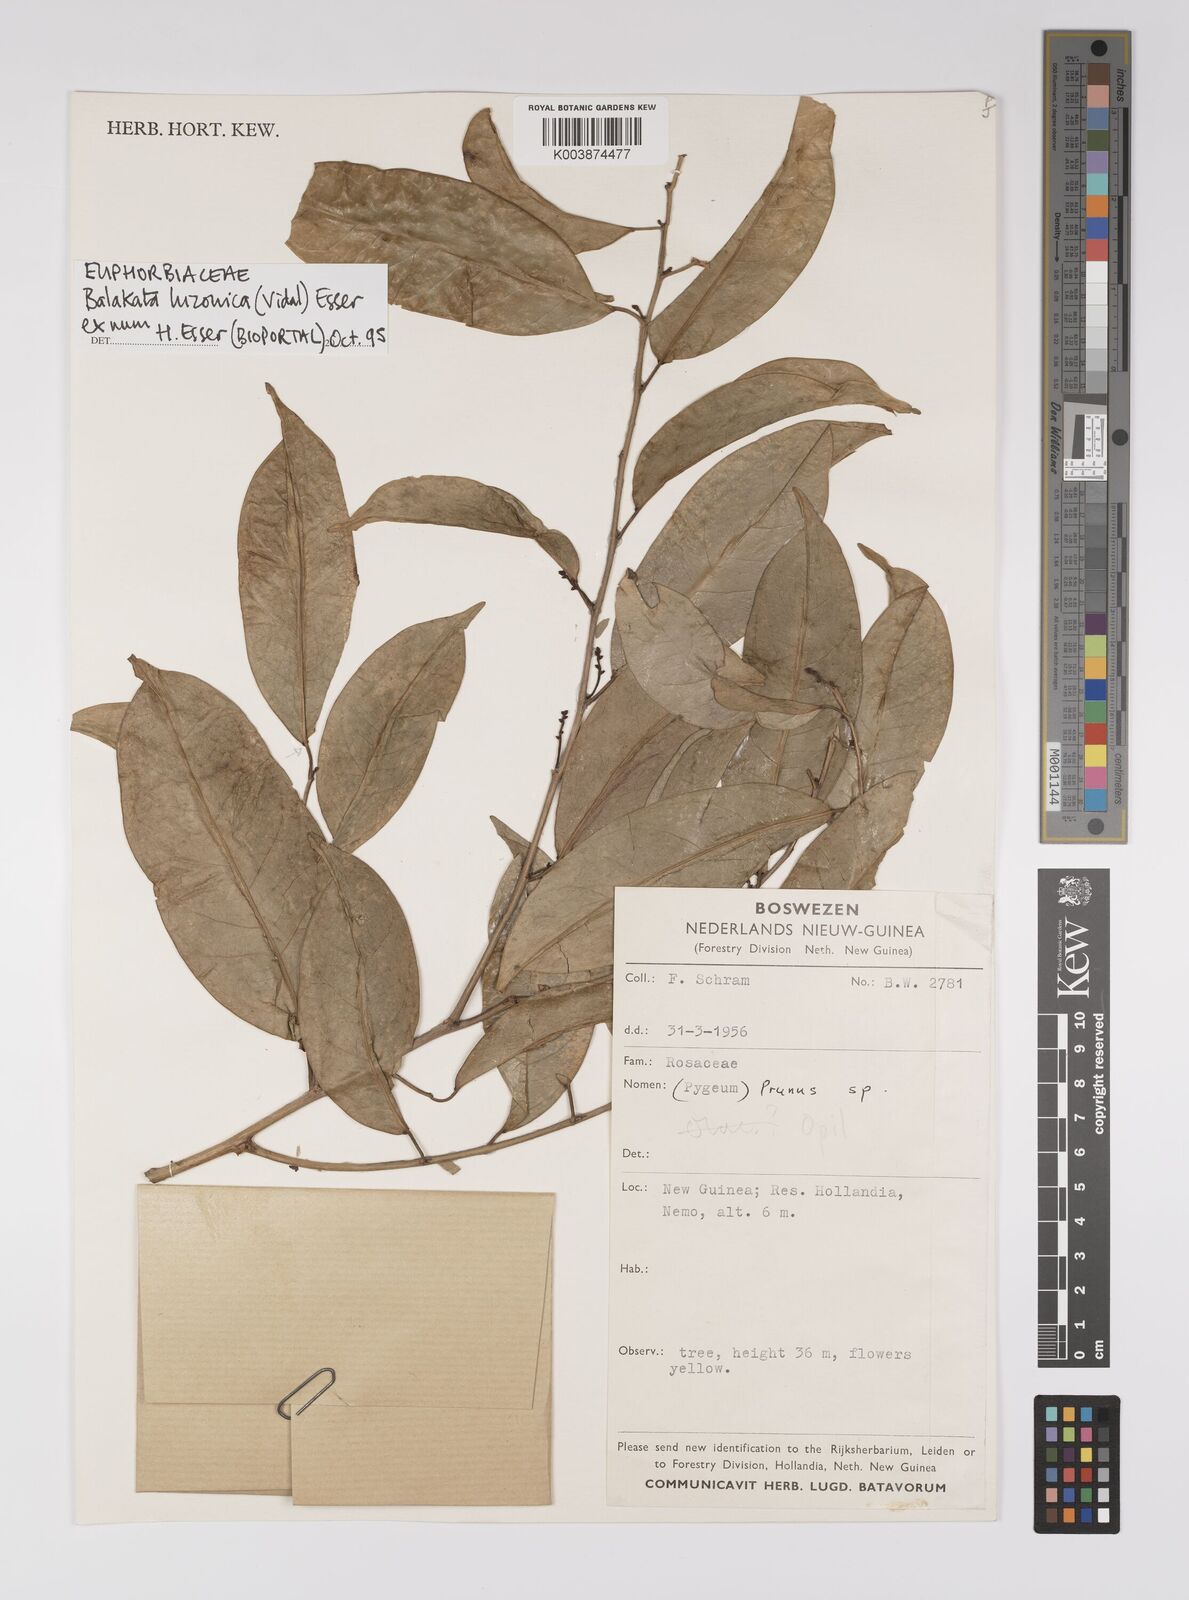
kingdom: Plantae
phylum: Tracheophyta
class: Magnoliopsida
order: Malpighiales
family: Euphorbiaceae
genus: Balakata
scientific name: Balakata luzonica
